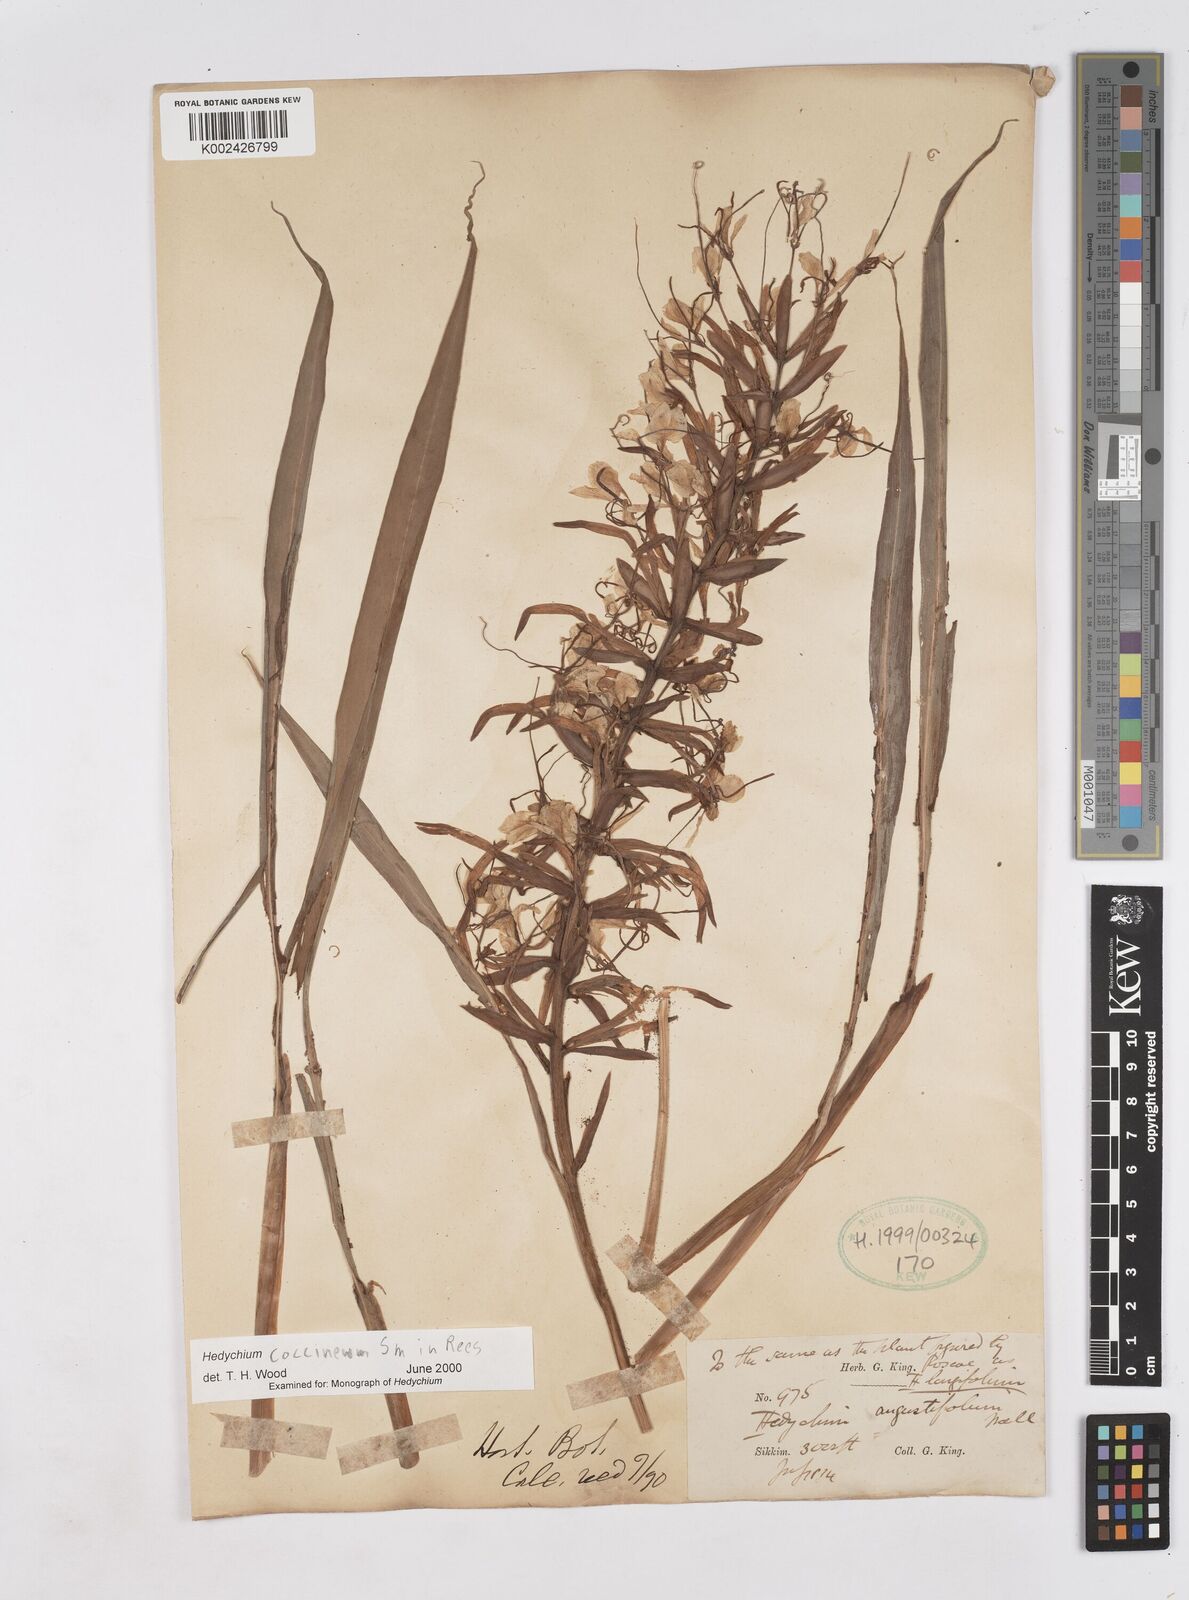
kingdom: Plantae
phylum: Tracheophyta
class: Liliopsida
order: Zingiberales
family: Zingiberaceae
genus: Hedychium
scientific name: Hedychium coccineum
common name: Red ginger-lily
